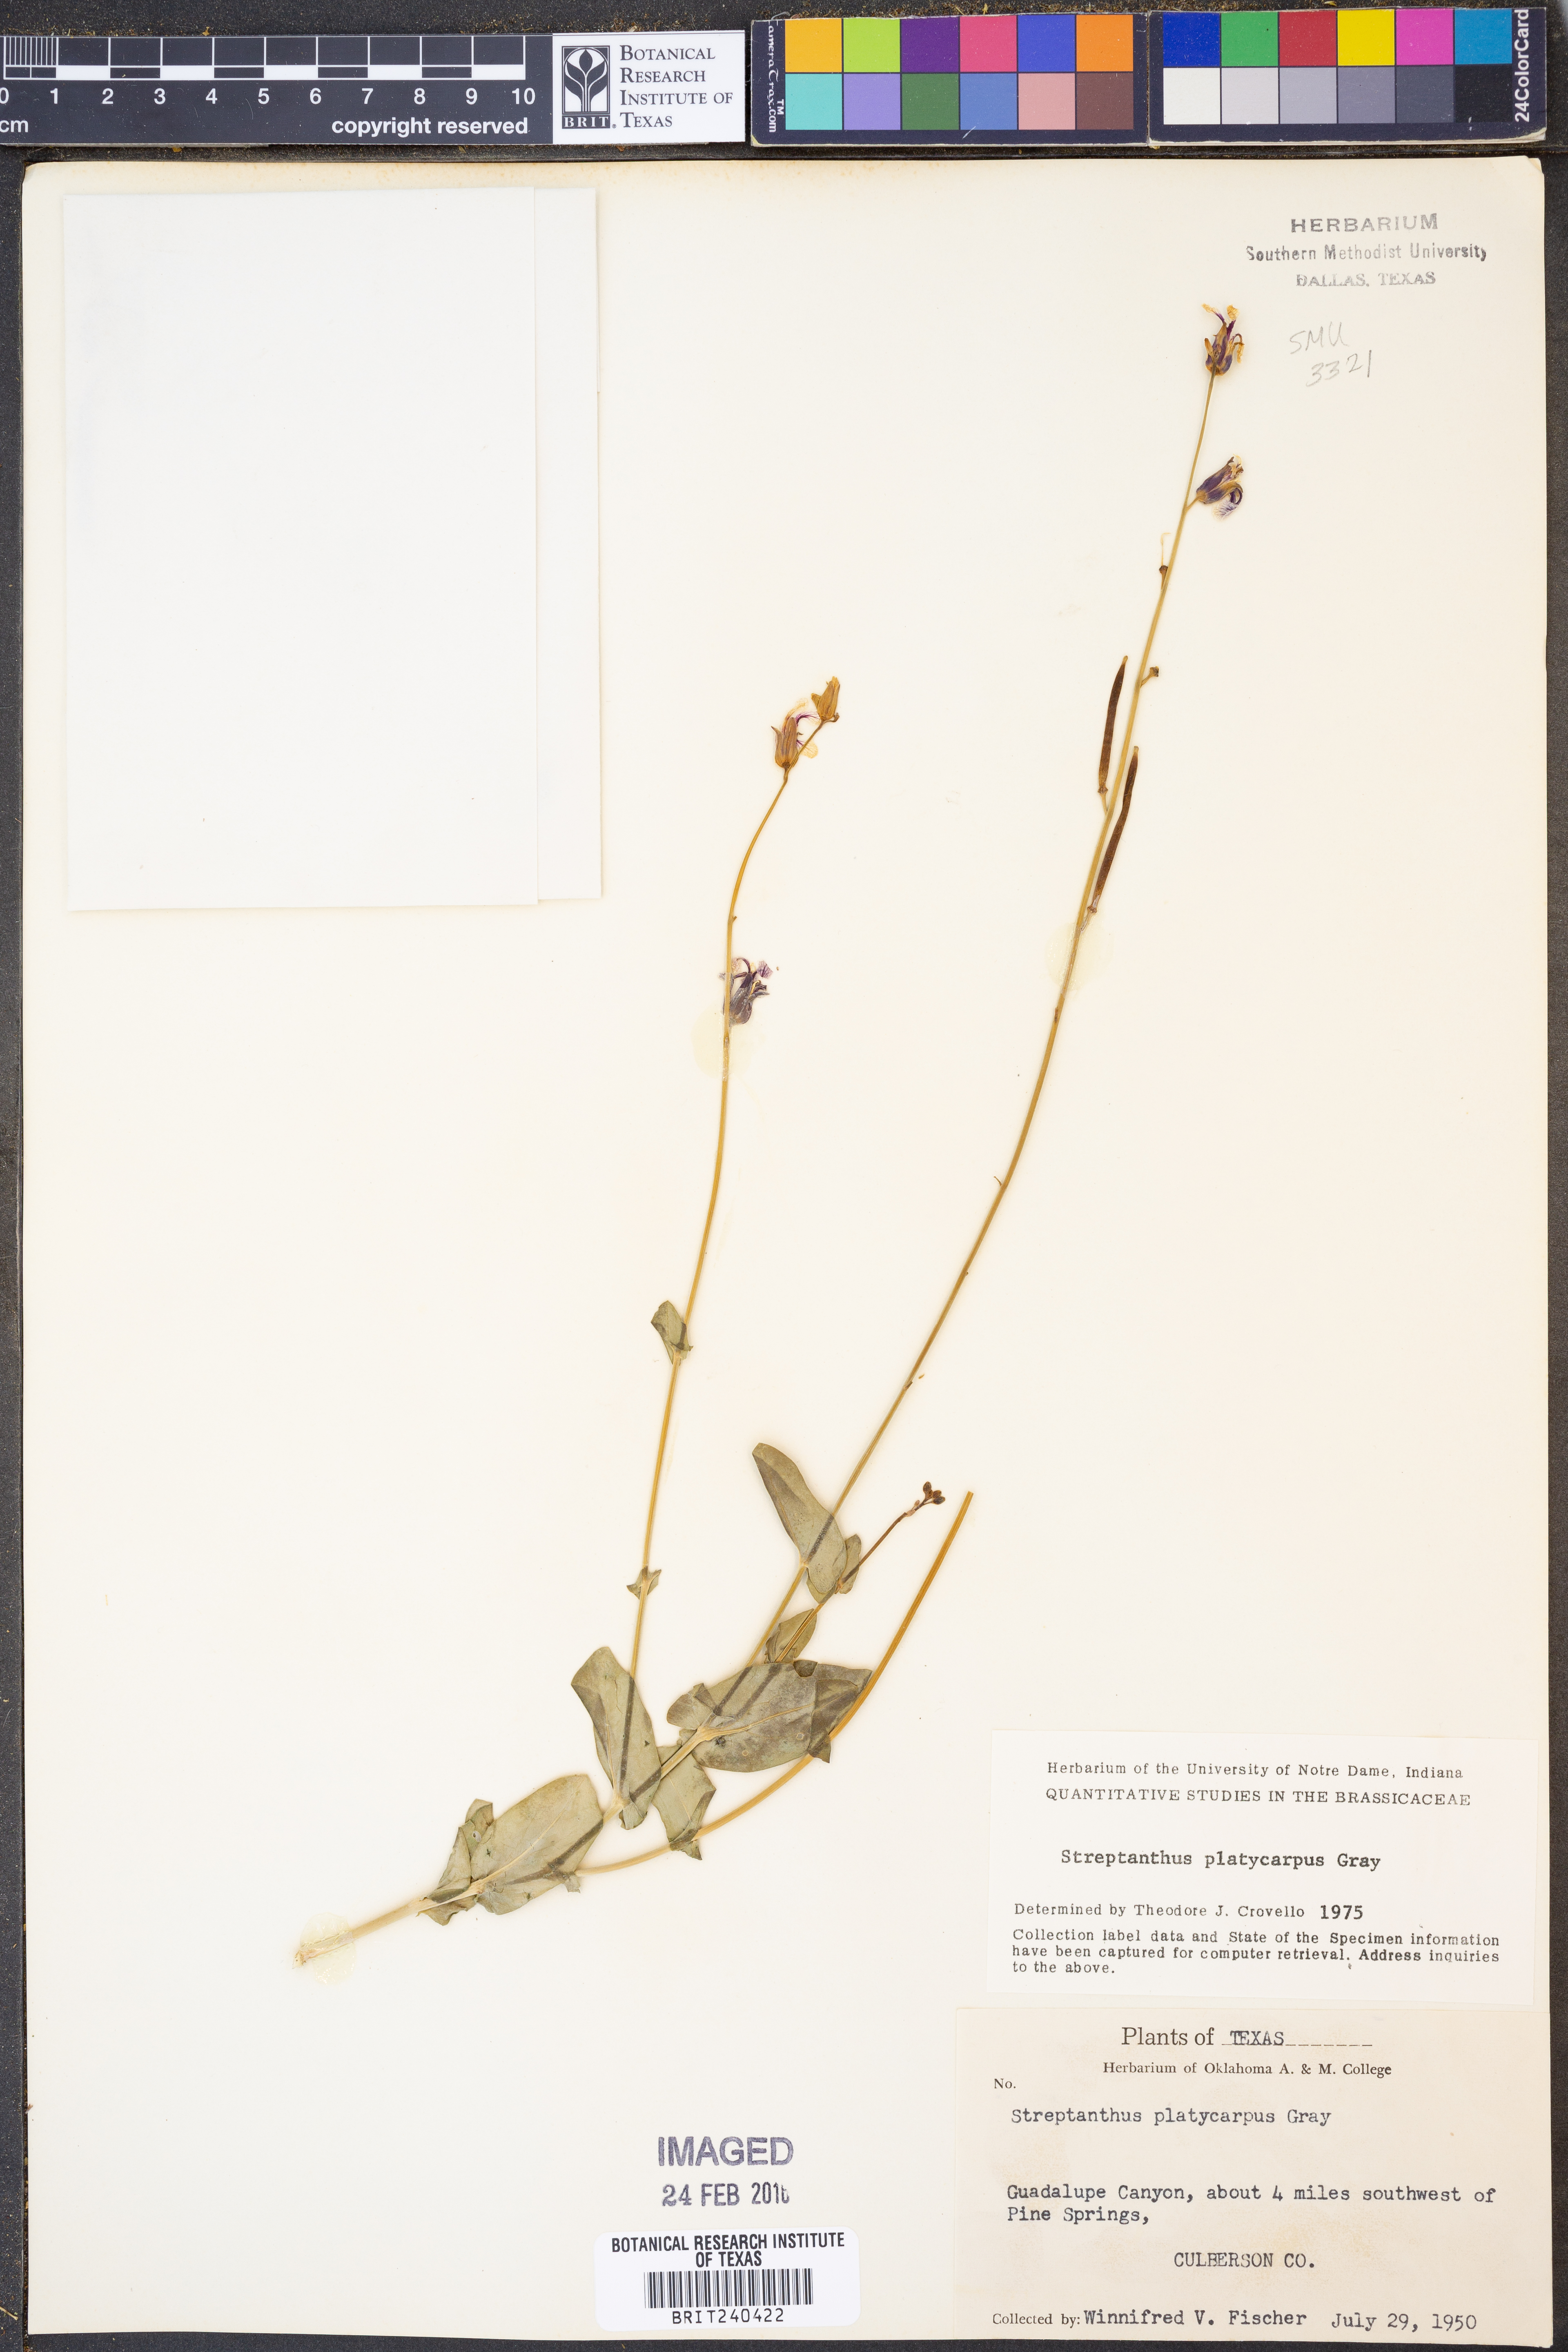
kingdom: Plantae
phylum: Tracheophyta
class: Magnoliopsida
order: Brassicales
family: Brassicaceae
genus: Streptanthus
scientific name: Streptanthus platycarpus
